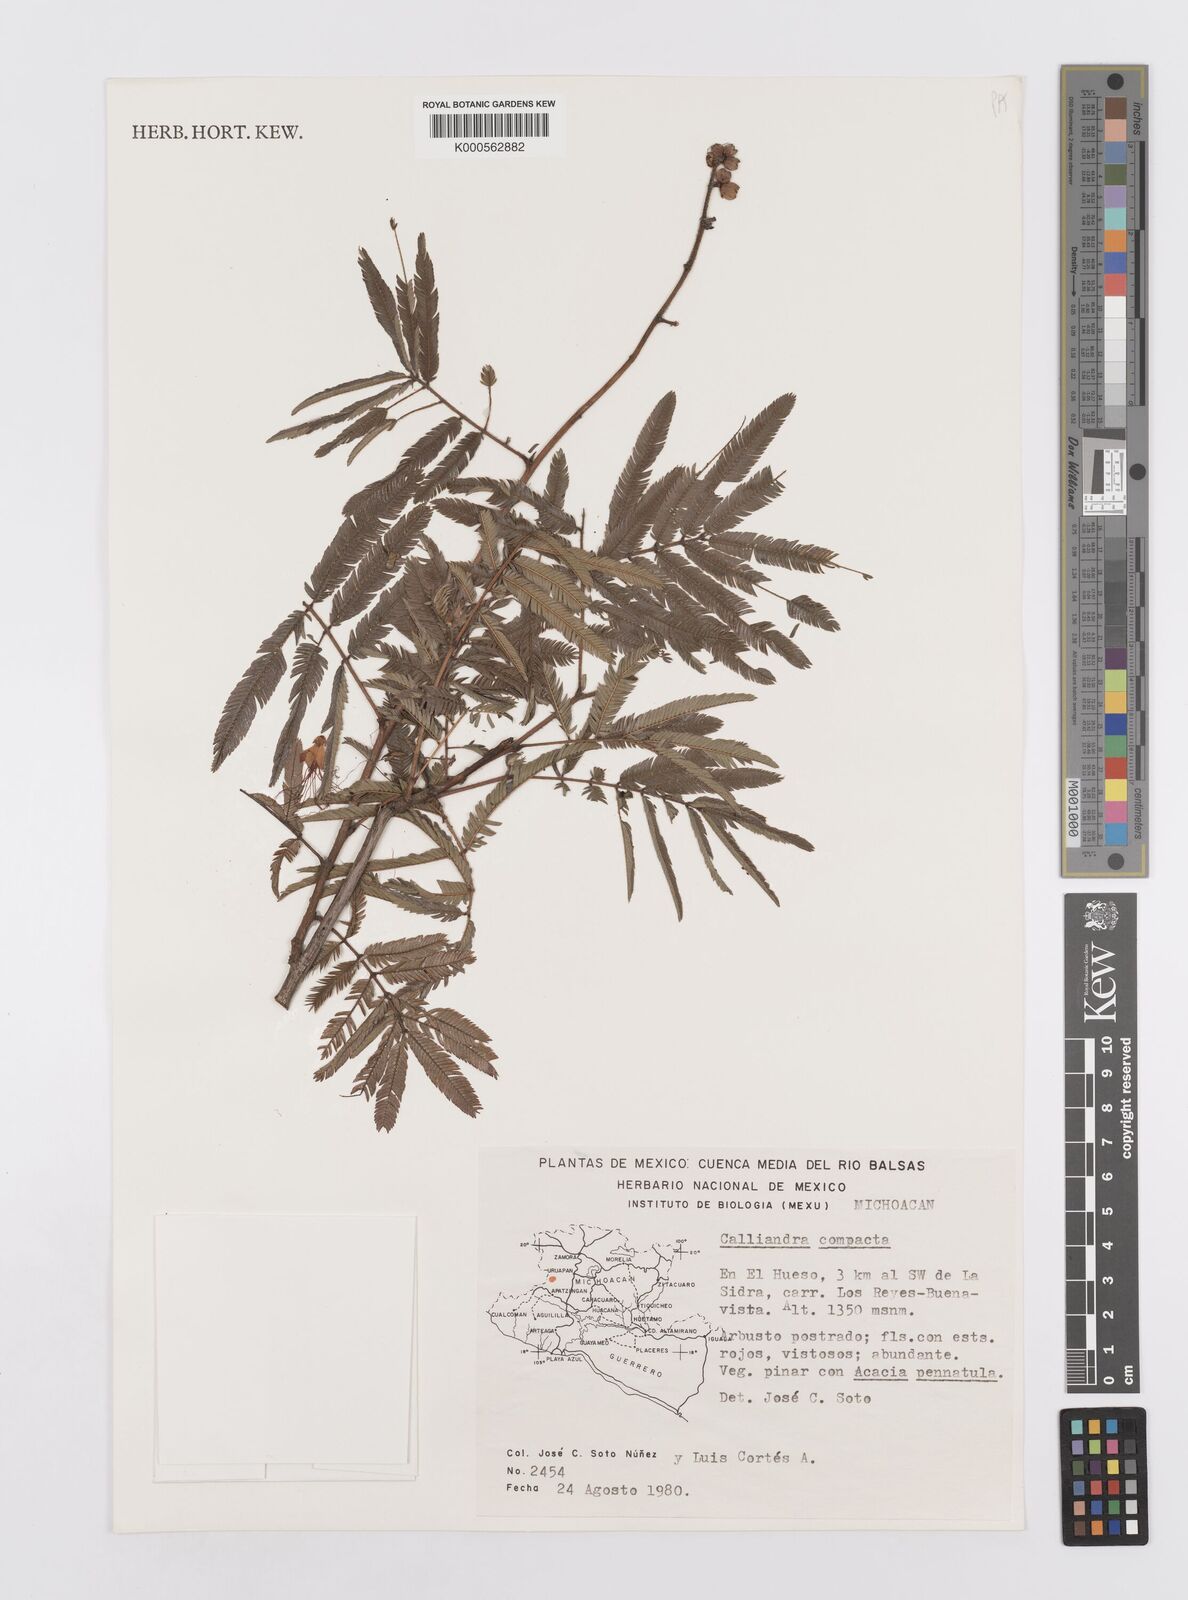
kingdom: Plantae
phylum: Tracheophyta
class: Magnoliopsida
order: Fabales
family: Fabaceae
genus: Calliandra
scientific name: Calliandra rubescens
